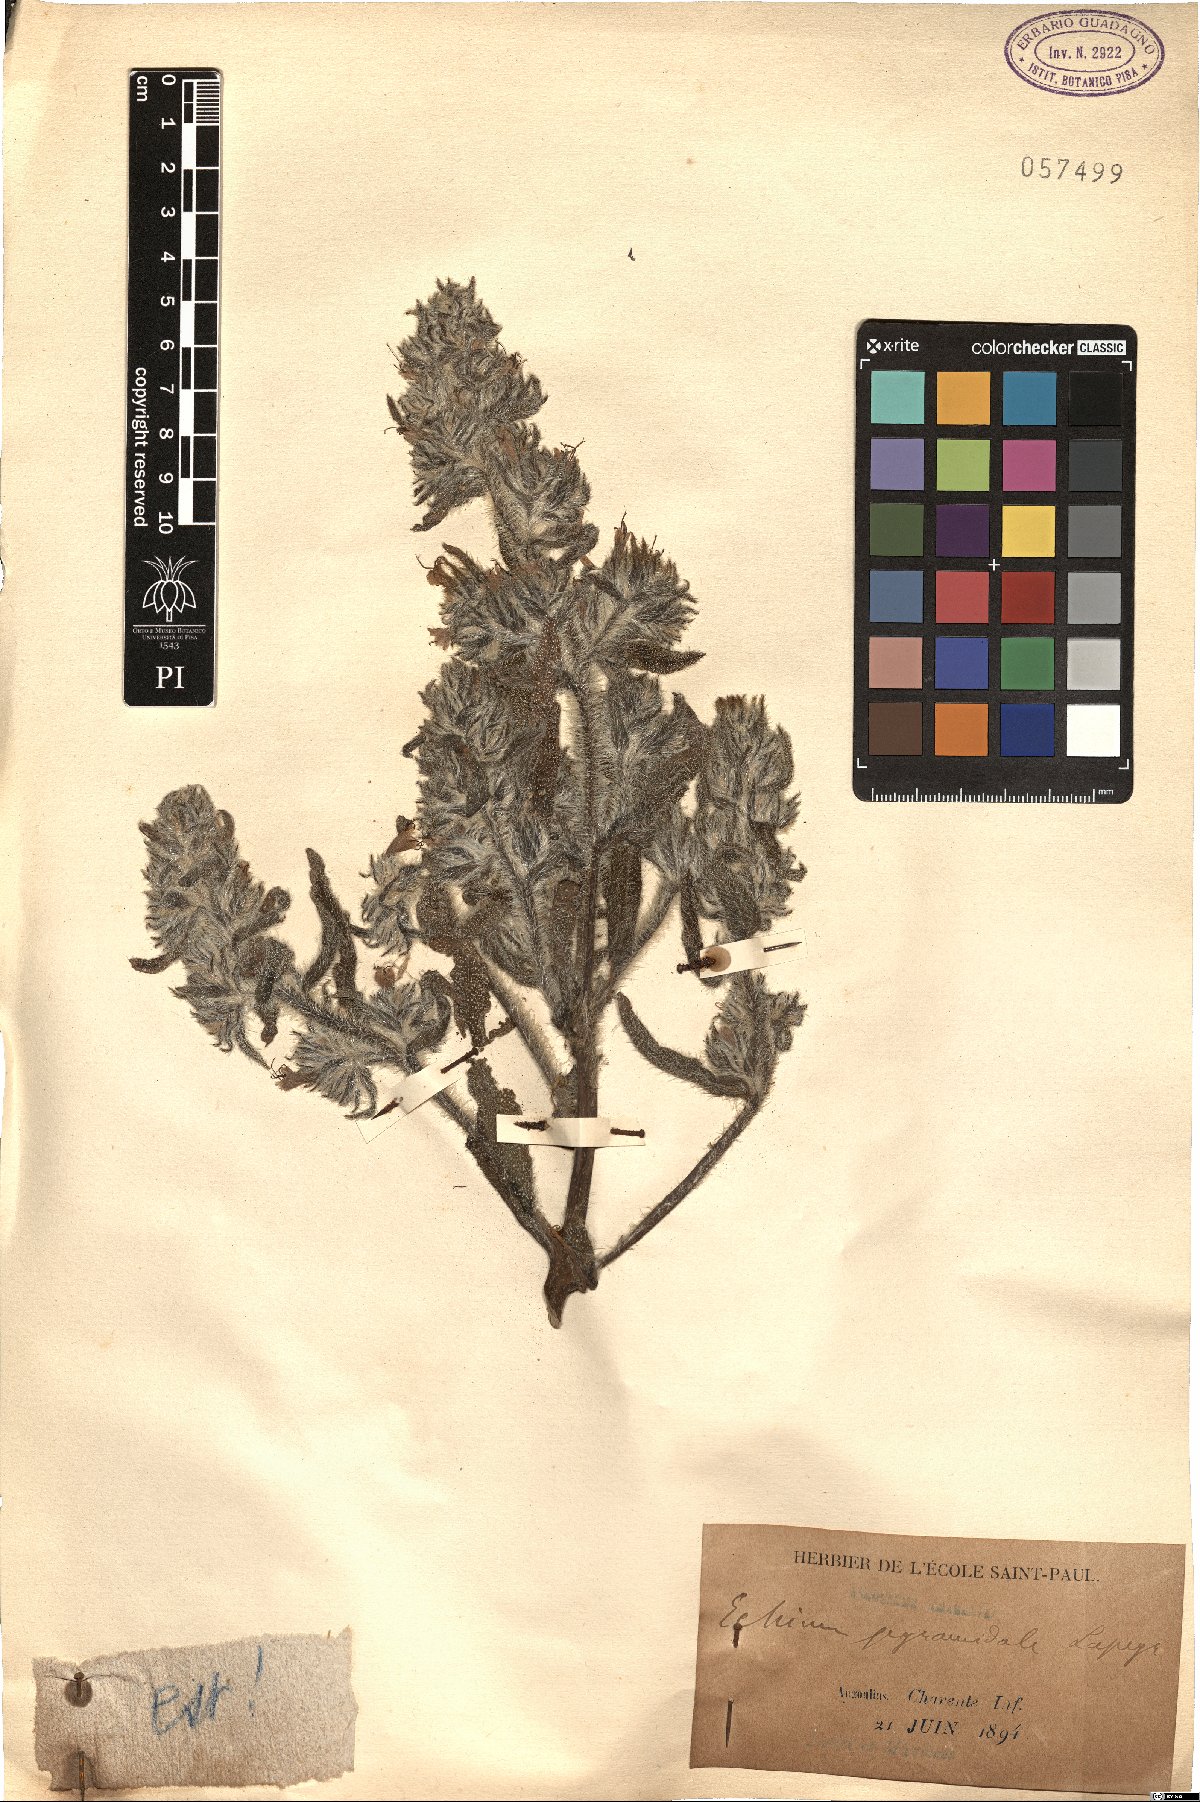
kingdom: Plantae
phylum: Tracheophyta
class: Magnoliopsida
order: Boraginales
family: Boraginaceae
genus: Echium
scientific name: Echium italicum
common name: Italian viper's bugloss
